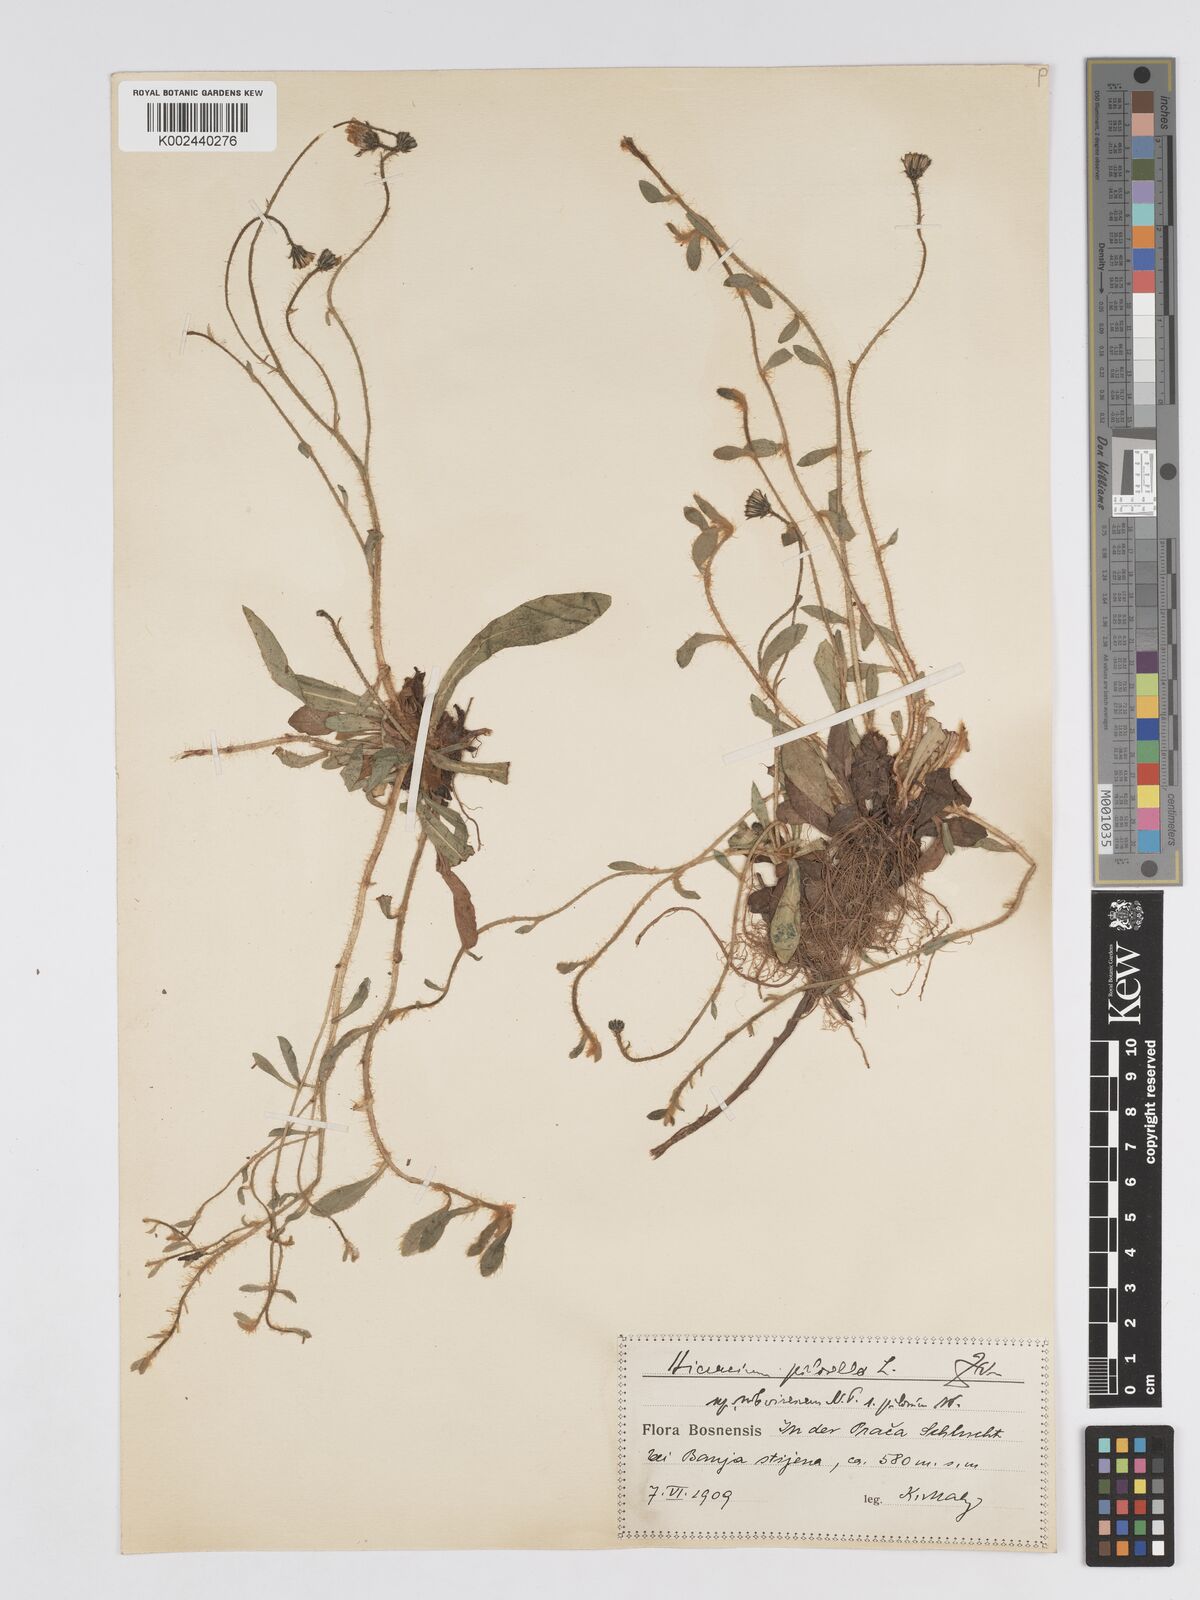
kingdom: Plantae
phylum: Tracheophyta
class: Magnoliopsida
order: Asterales
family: Asteraceae
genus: Pilosella
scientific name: Pilosella officinarum
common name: Mouse-ear hawkweed
